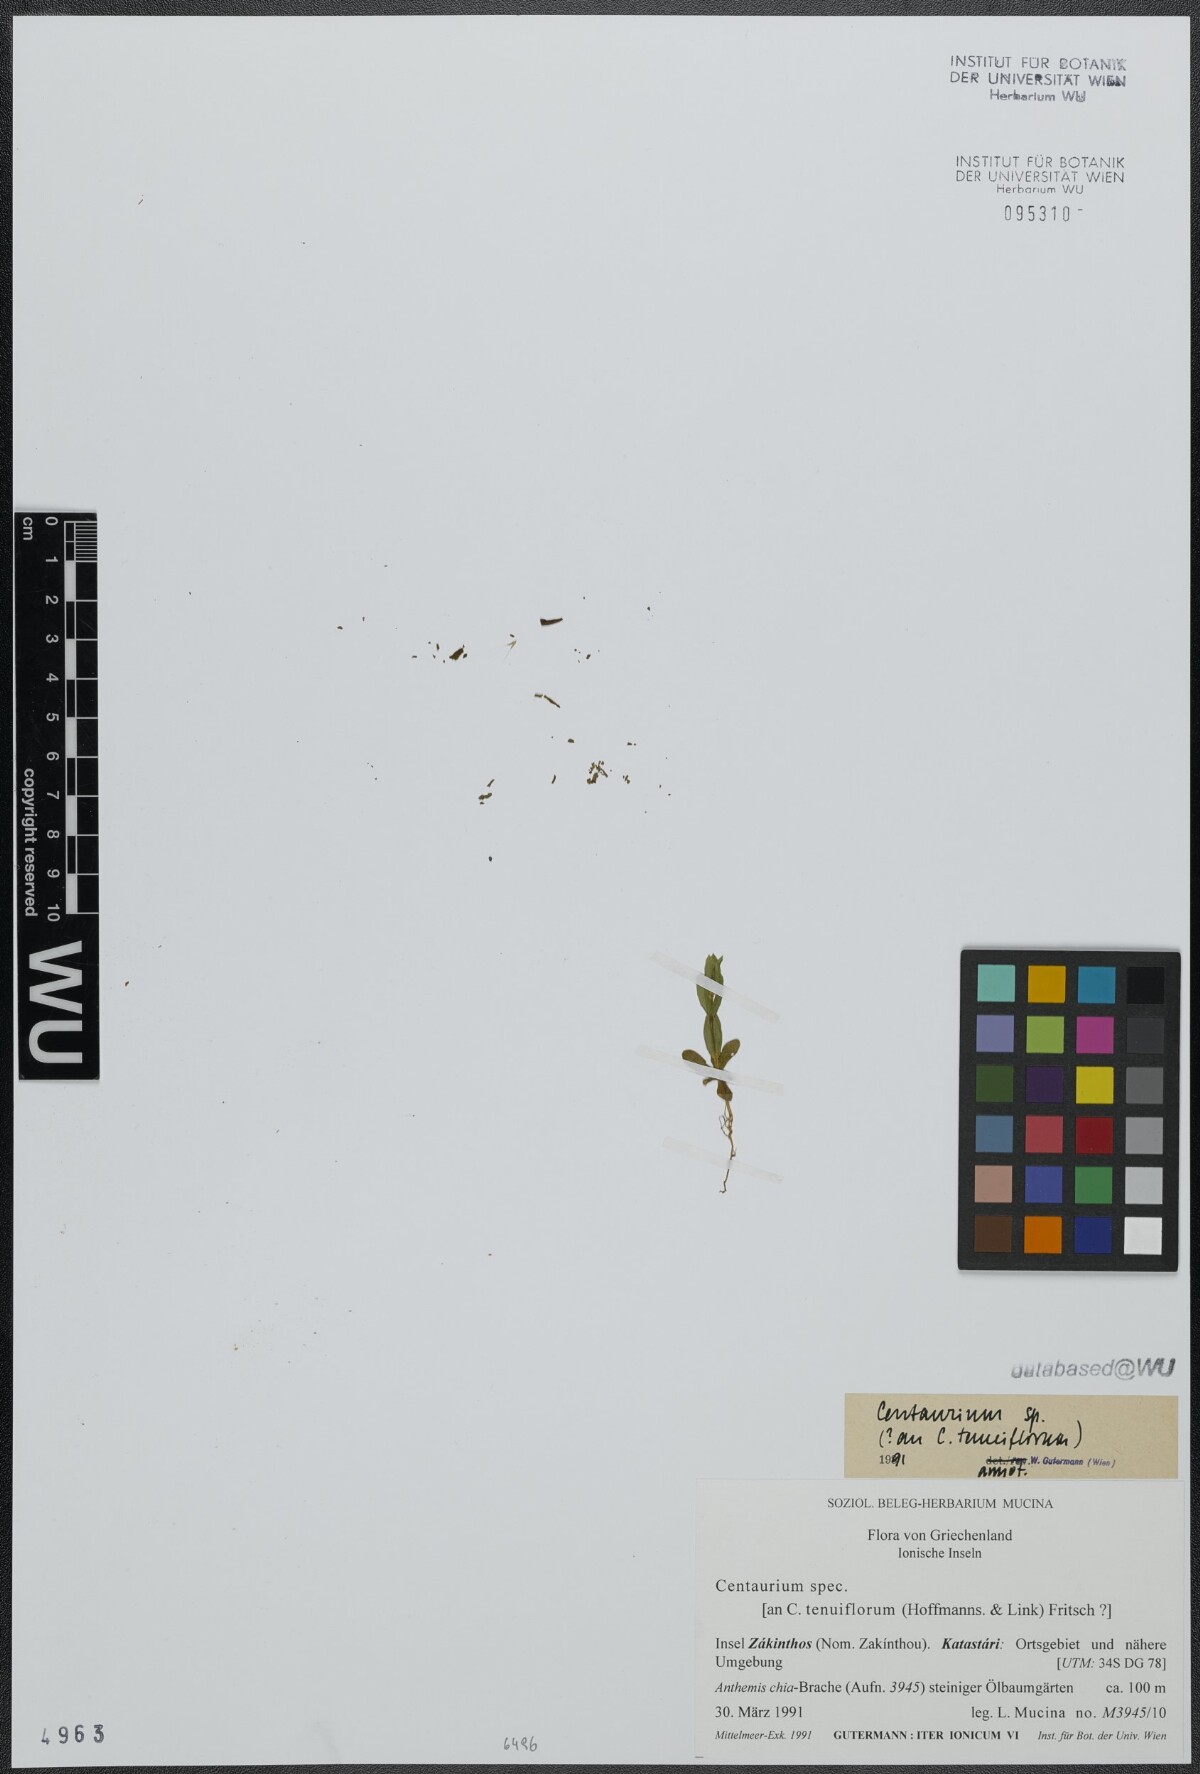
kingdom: Plantae
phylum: Tracheophyta
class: Magnoliopsida
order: Gentianales
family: Gentianaceae
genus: Centaurium
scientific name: Centaurium tenuiflorum
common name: Slender centaury
